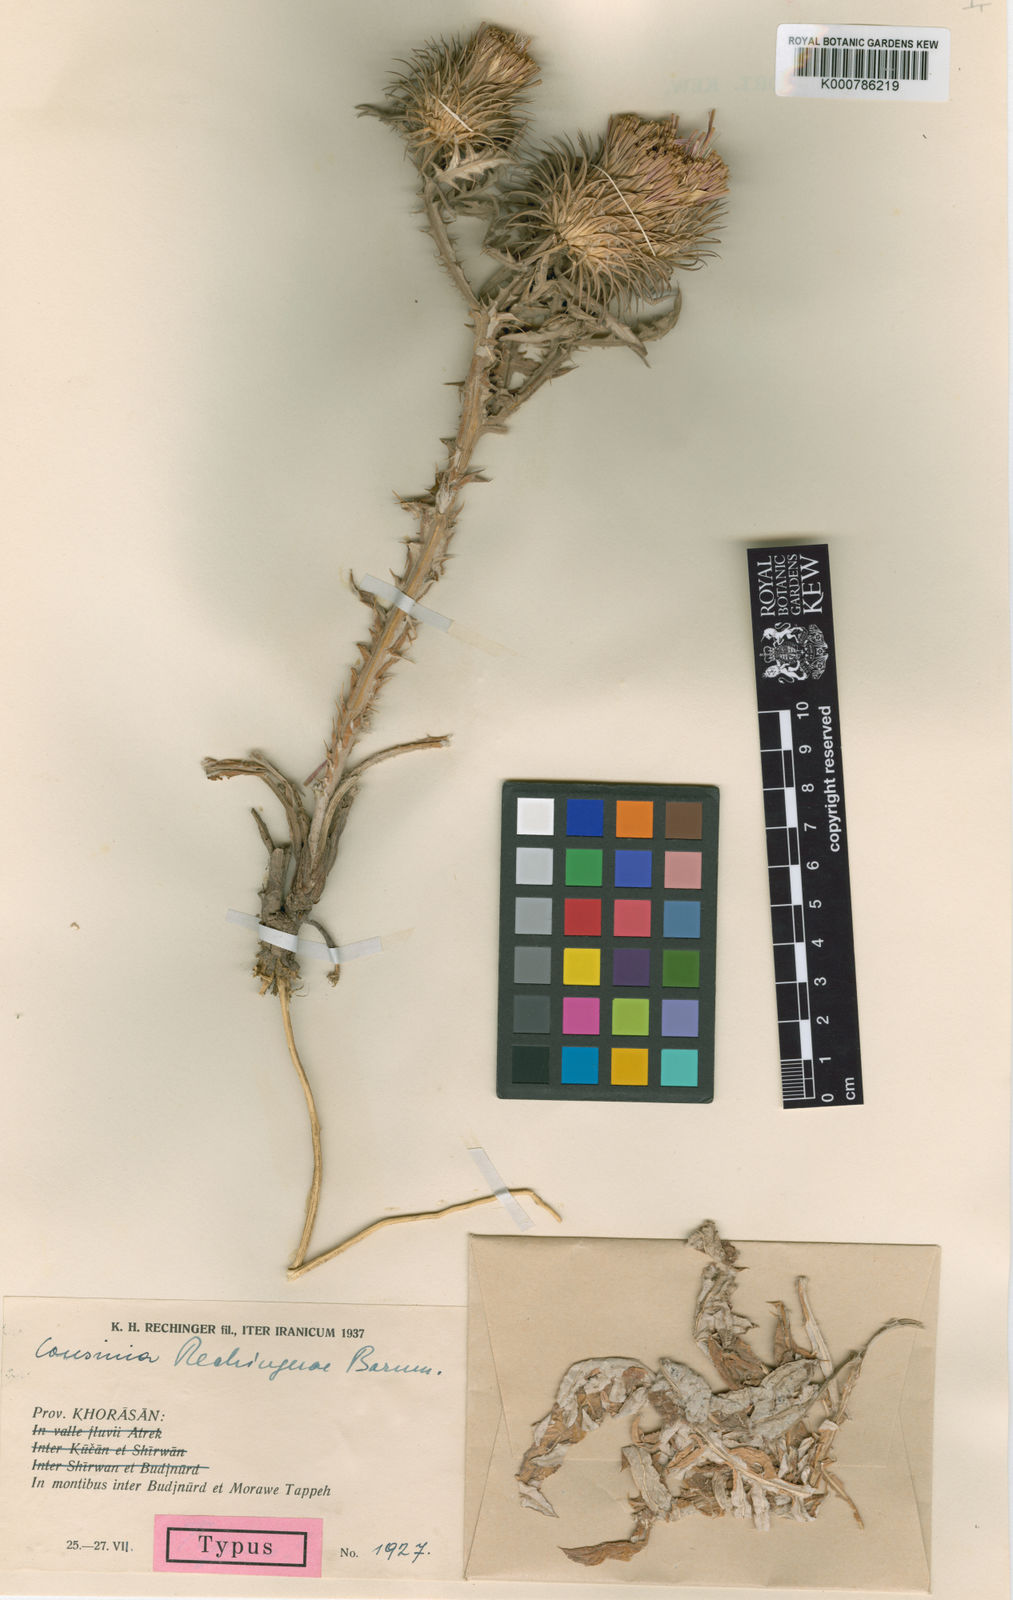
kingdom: Plantae
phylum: Tracheophyta
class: Magnoliopsida
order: Asterales
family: Asteraceae
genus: Cousinia
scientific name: Cousinia rechingerae
